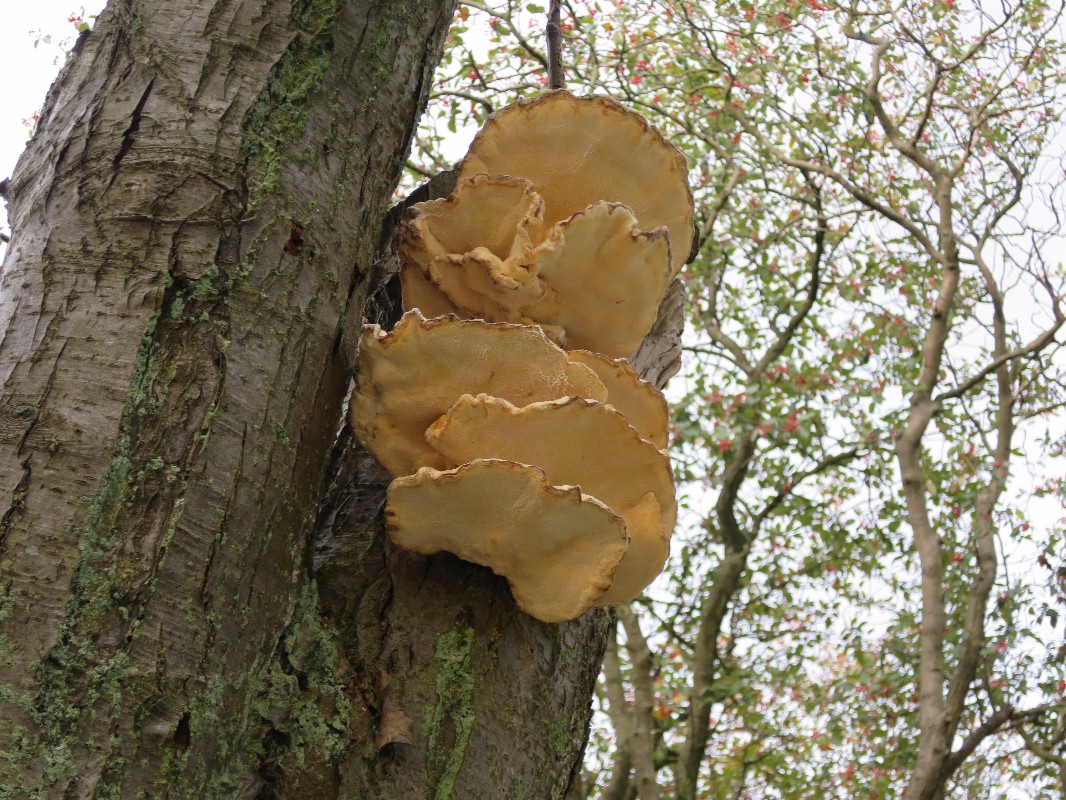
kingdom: Fungi
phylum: Basidiomycota
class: Agaricomycetes
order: Polyporales
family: Laetiporaceae
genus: Laetiporus
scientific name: Laetiporus sulphureus
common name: svovlporesvamp
